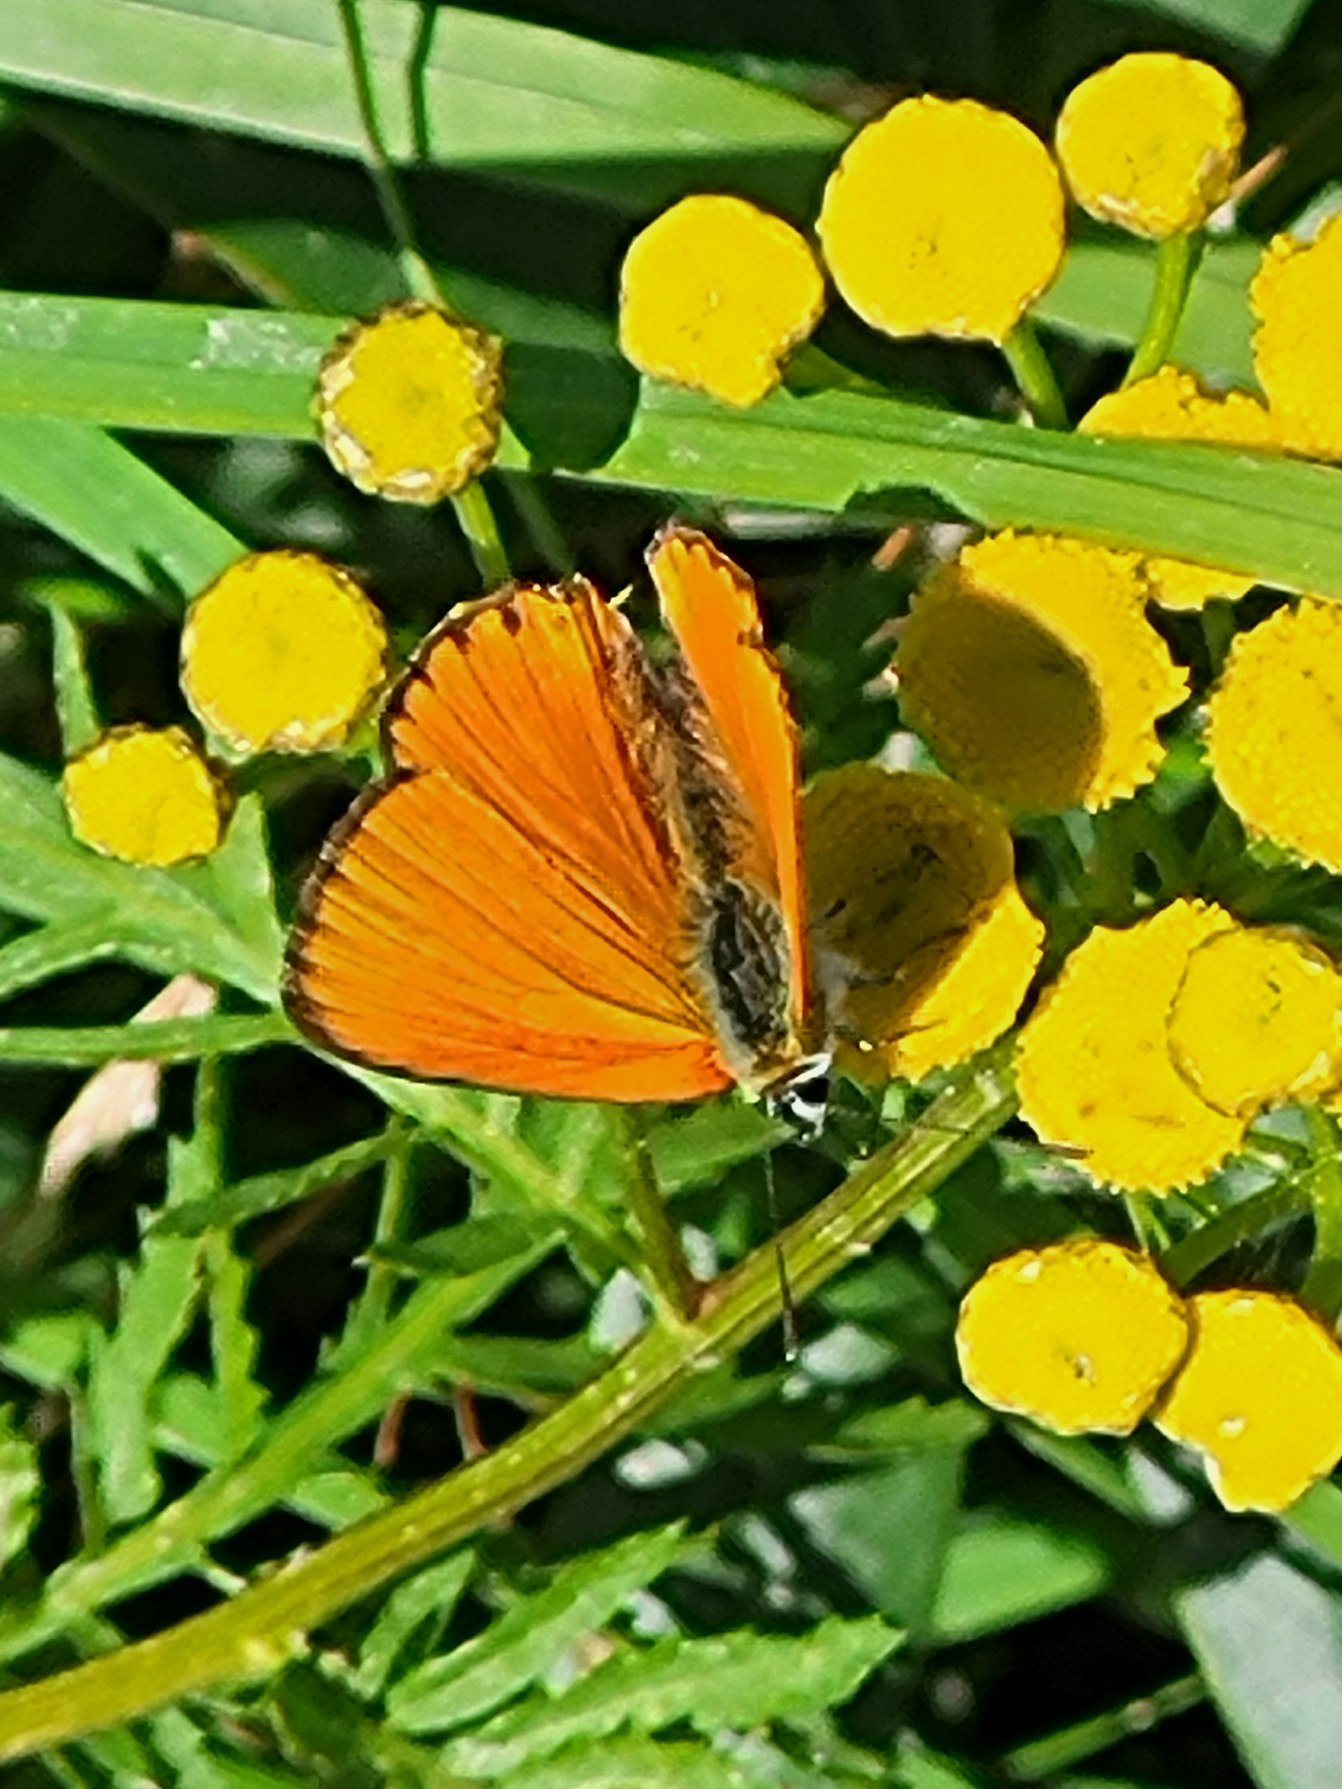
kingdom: Animalia
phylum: Arthropoda
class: Insecta
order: Lepidoptera
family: Lycaenidae
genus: Lycaena
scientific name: Lycaena virgaureae
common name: Dukatsommerfugl
